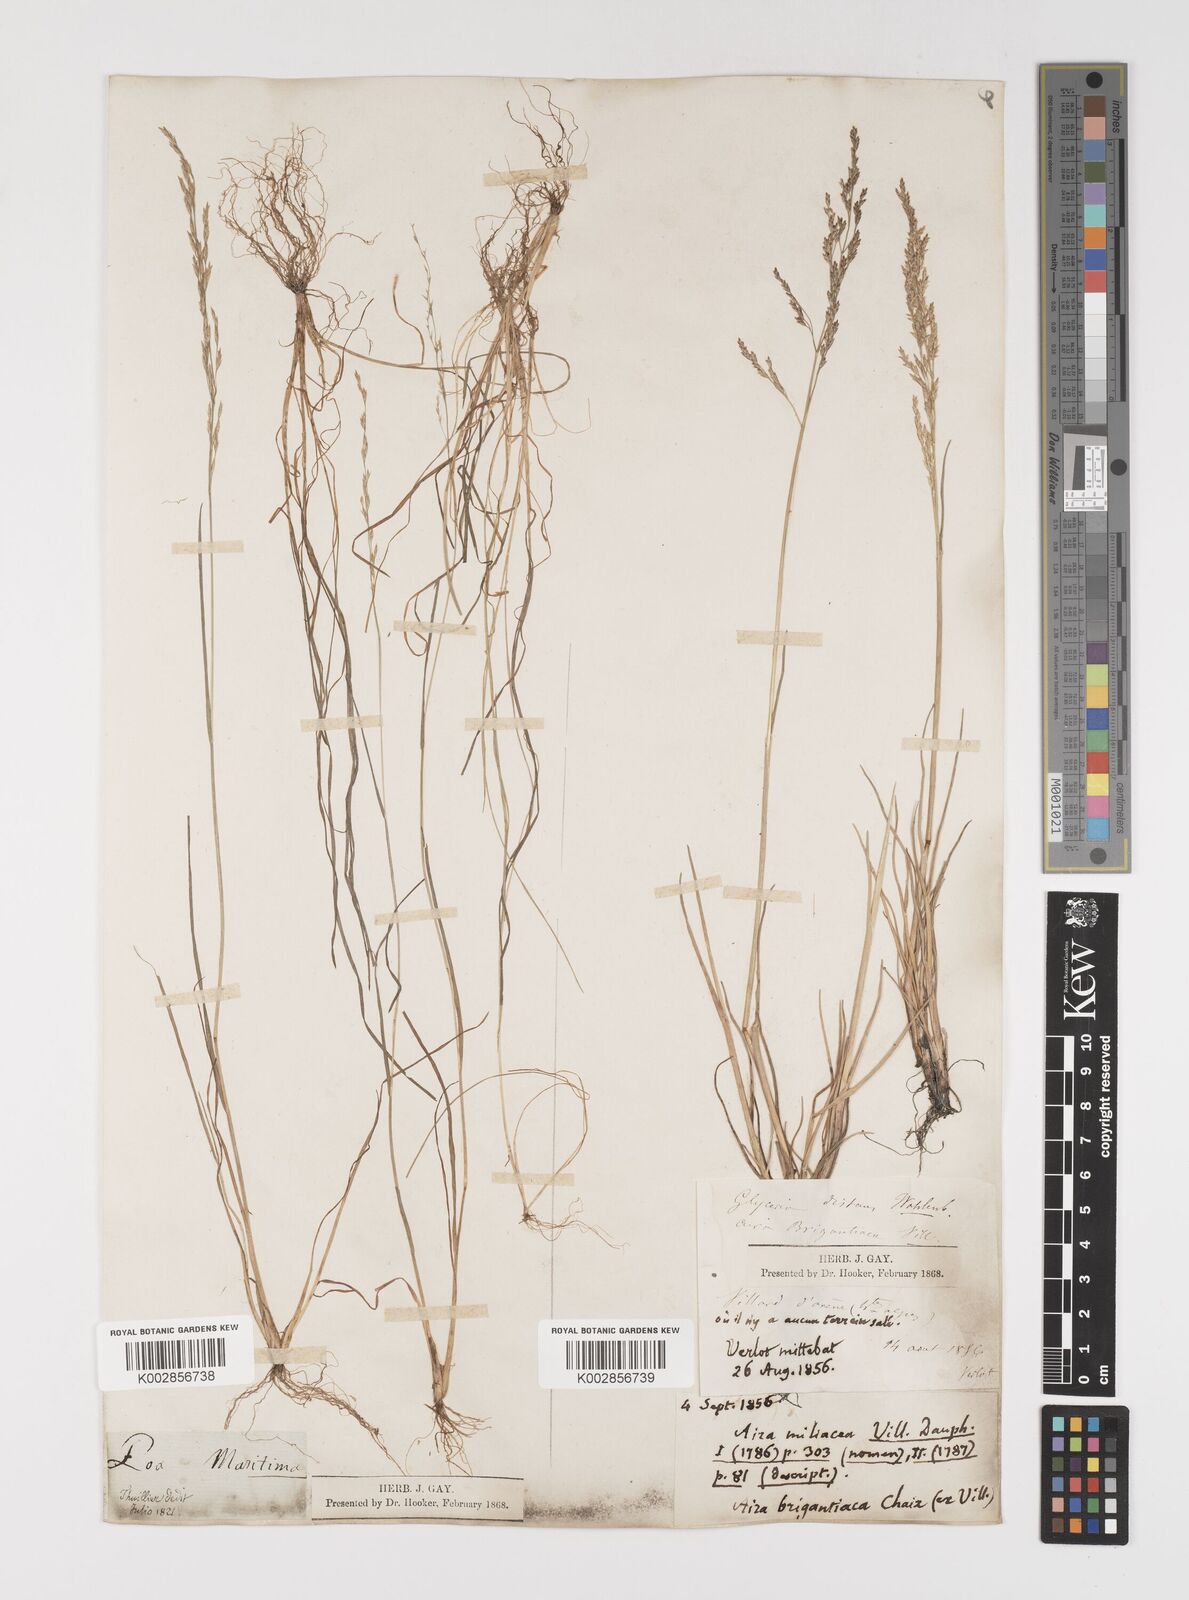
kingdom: Plantae
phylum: Tracheophyta
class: Liliopsida
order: Poales
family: Poaceae
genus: Puccinellia
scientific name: Puccinellia
